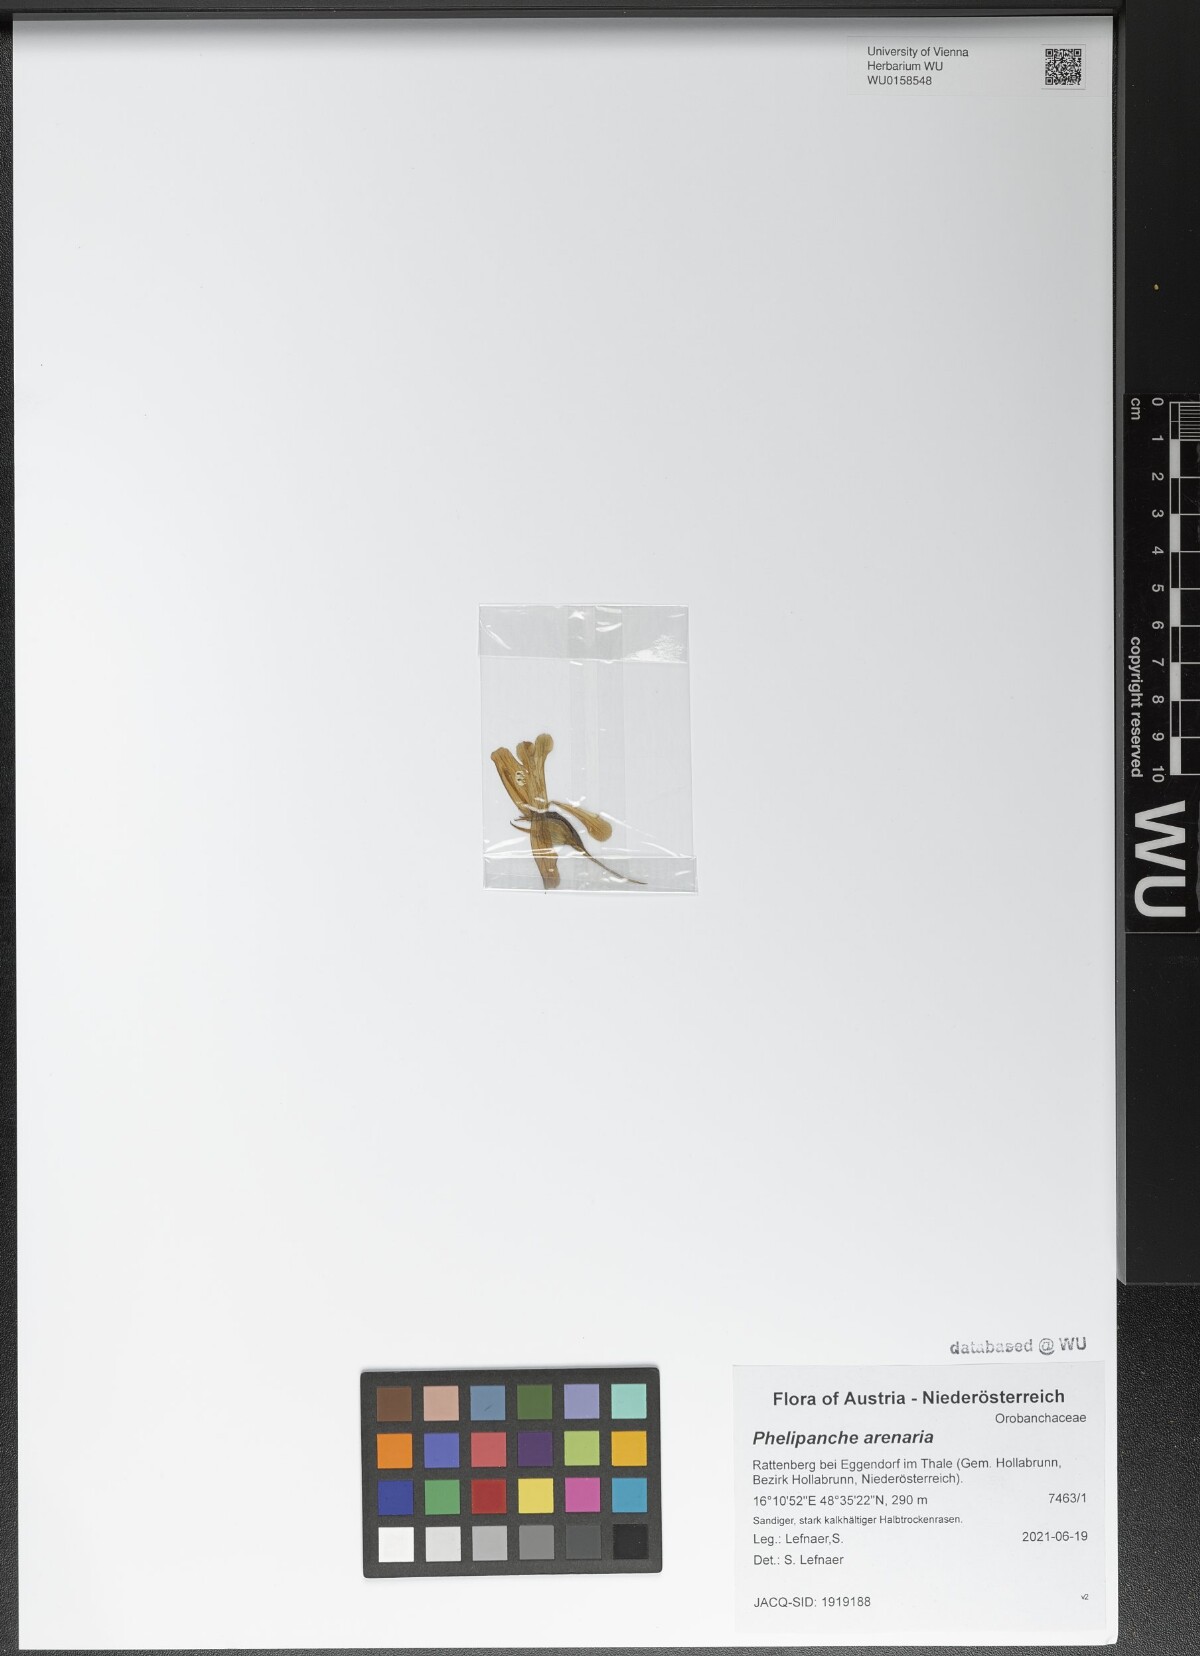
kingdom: Plantae
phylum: Tracheophyta
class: Magnoliopsida
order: Lamiales
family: Orobanchaceae
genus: Phelipanche
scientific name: Phelipanche arenaria
